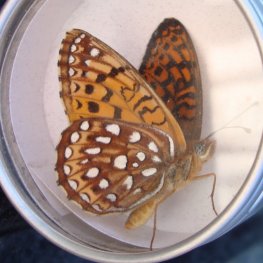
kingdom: Animalia
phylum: Arthropoda
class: Insecta
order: Lepidoptera
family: Nymphalidae
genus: Speyeria
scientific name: Speyeria atlantis
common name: Atlantis Fritillary
